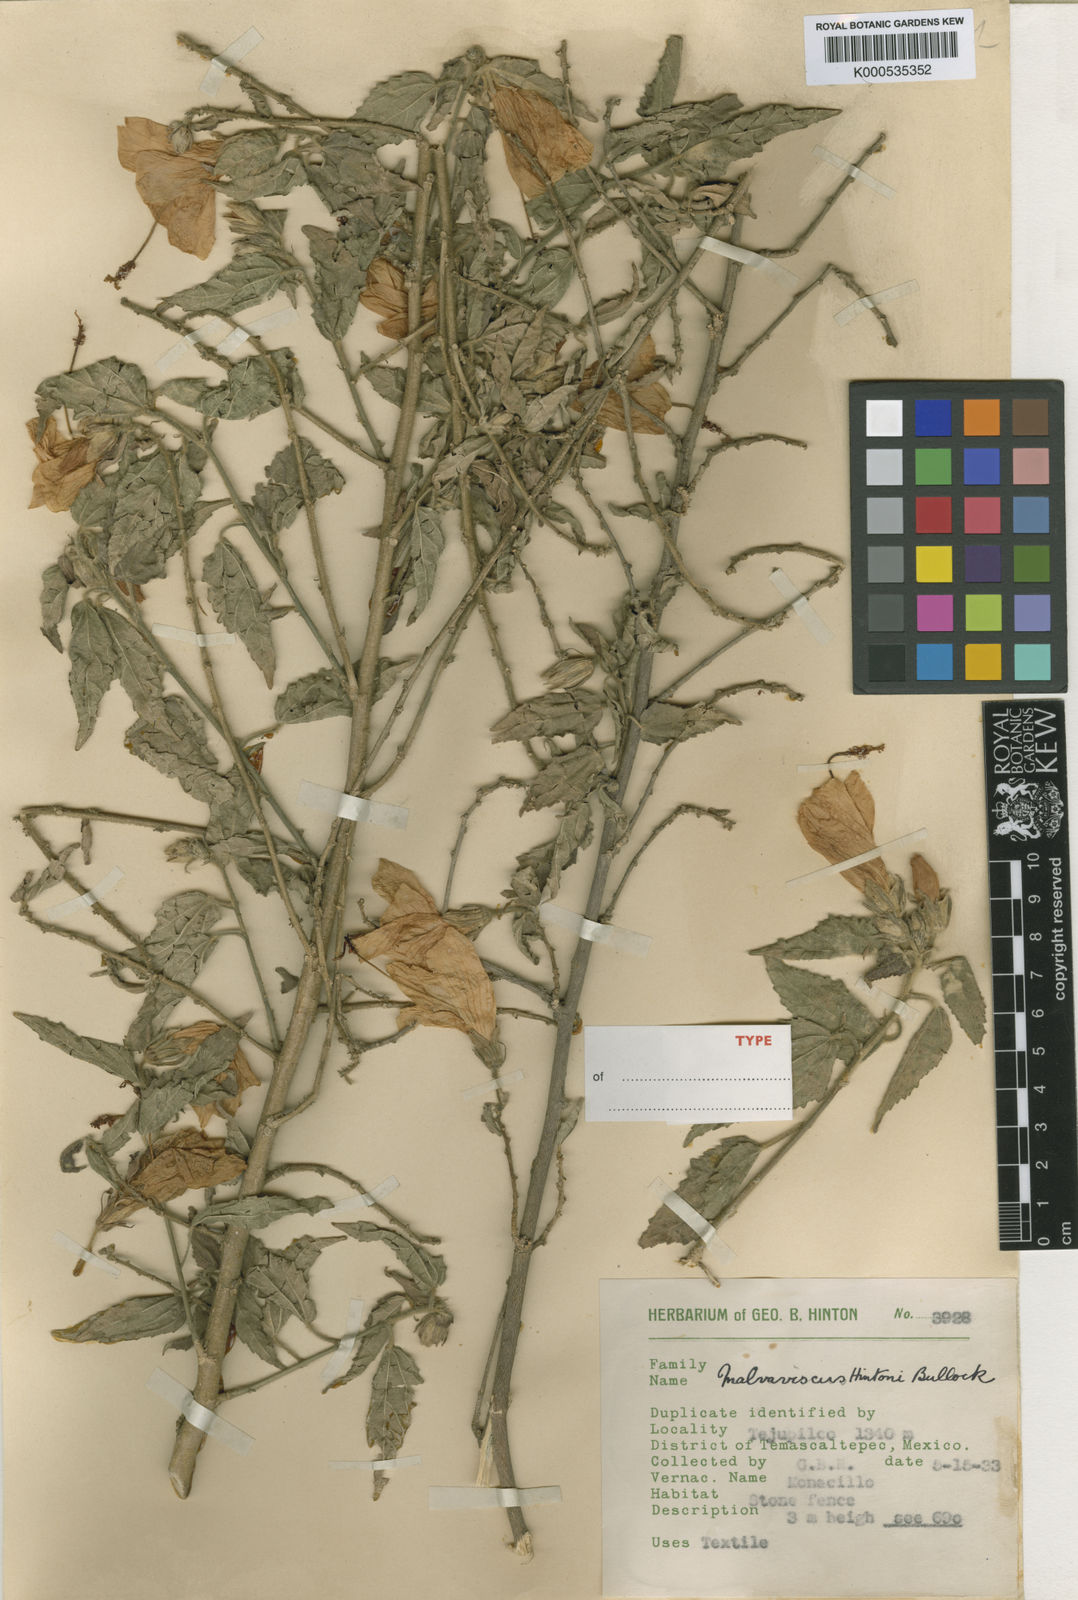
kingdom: Plantae
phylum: Tracheophyta
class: Magnoliopsida
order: Malvales
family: Malvaceae
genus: Malvaviscus
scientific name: Malvaviscus urticifolius
